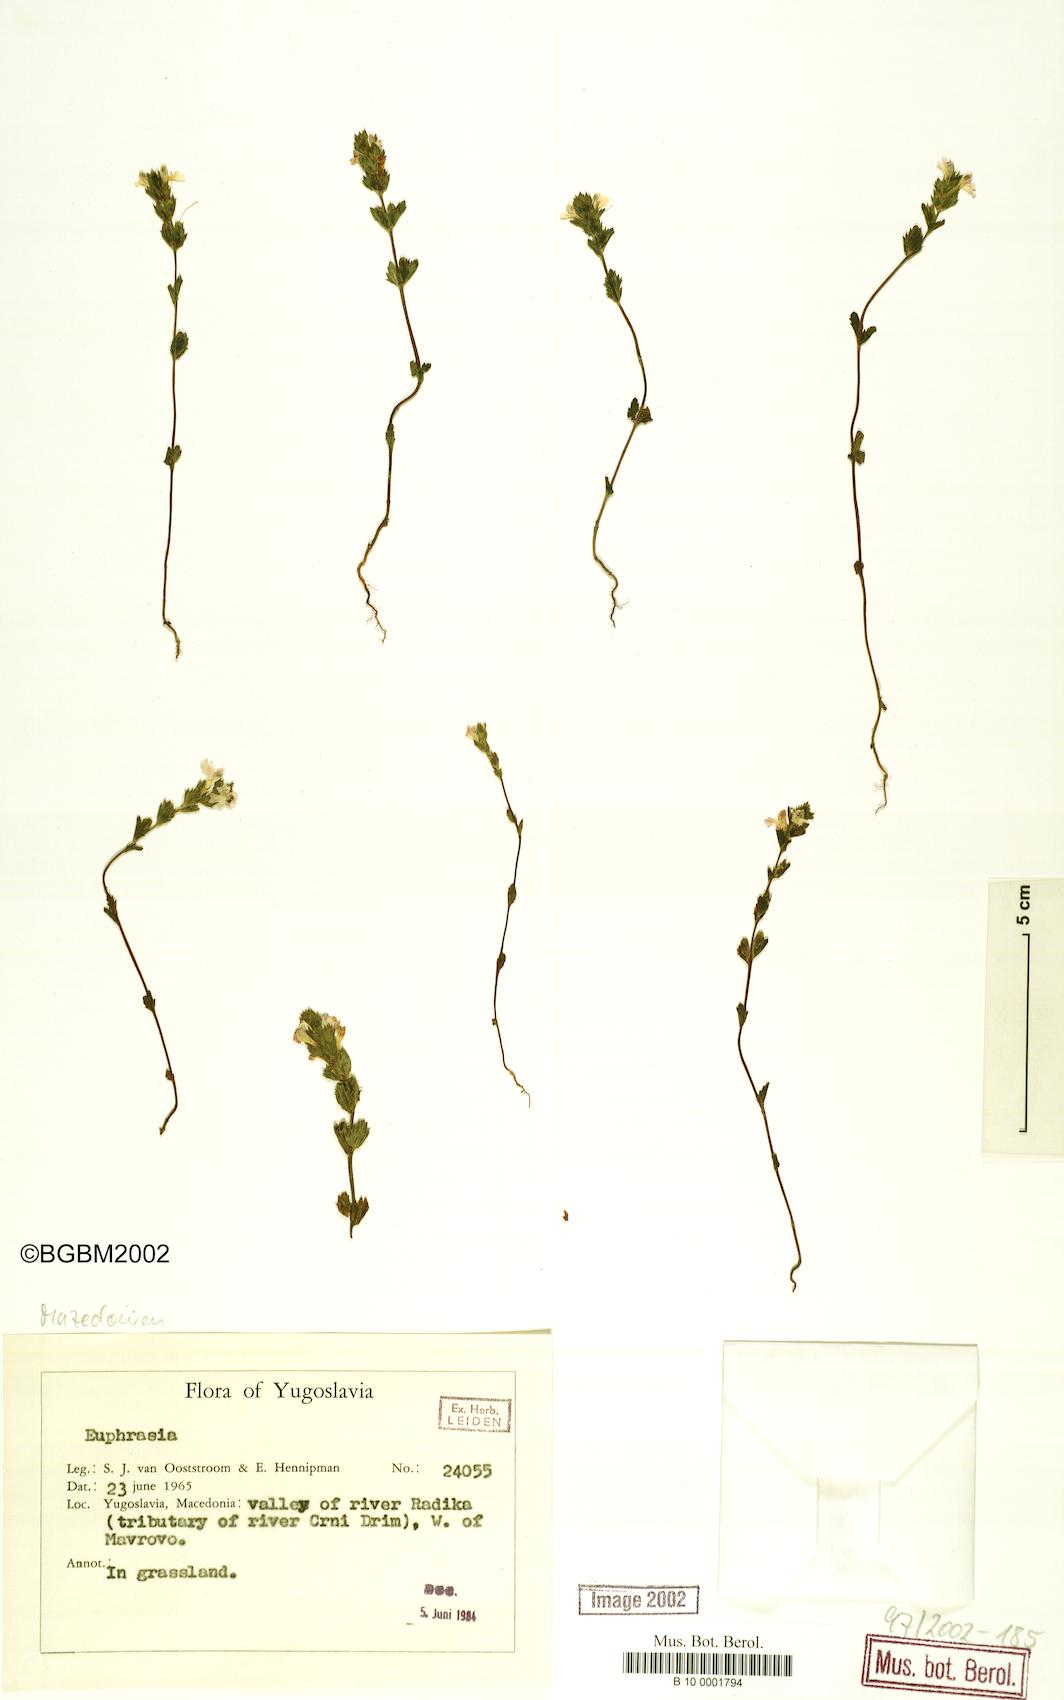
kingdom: Plantae
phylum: Tracheophyta
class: Magnoliopsida
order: Lamiales
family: Orobanchaceae
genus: Euphrasia
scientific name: Euphrasia
